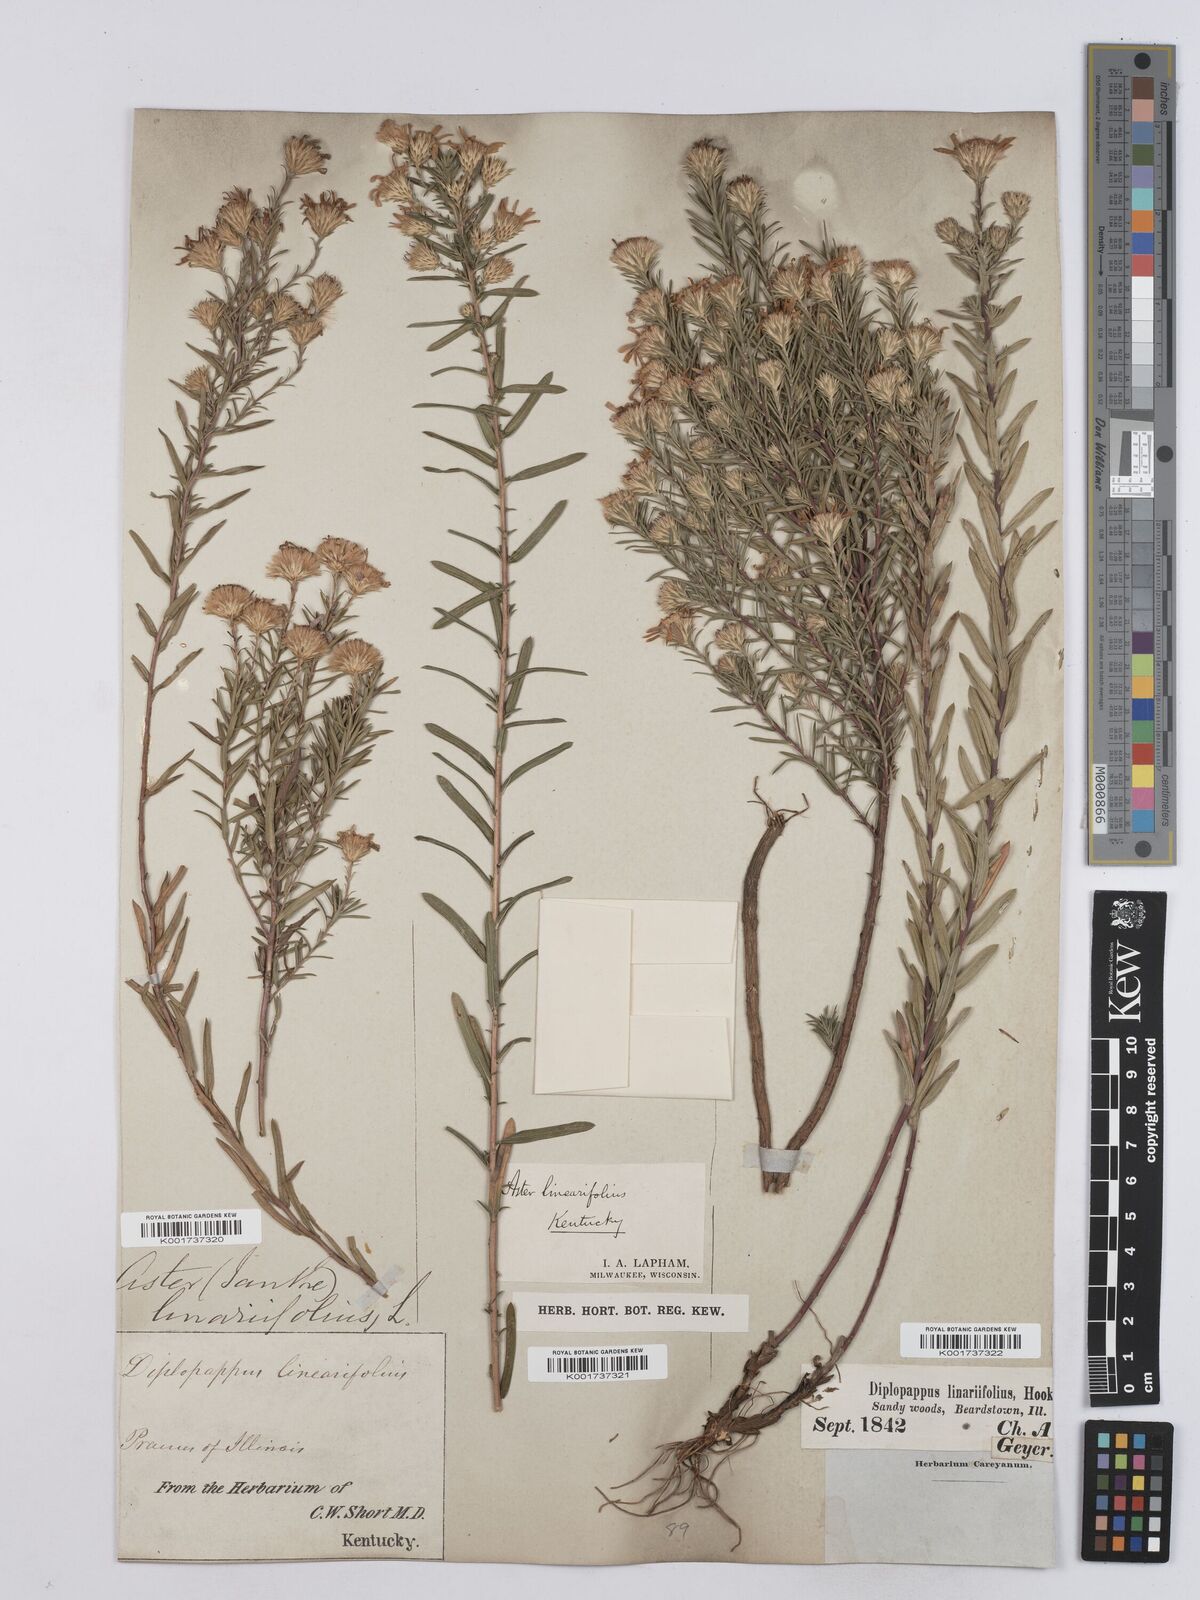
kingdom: Plantae
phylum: Tracheophyta
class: Magnoliopsida
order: Asterales
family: Asteraceae
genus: Ionactis
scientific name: Ionactis linariifolia
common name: Flax-leaf aster
